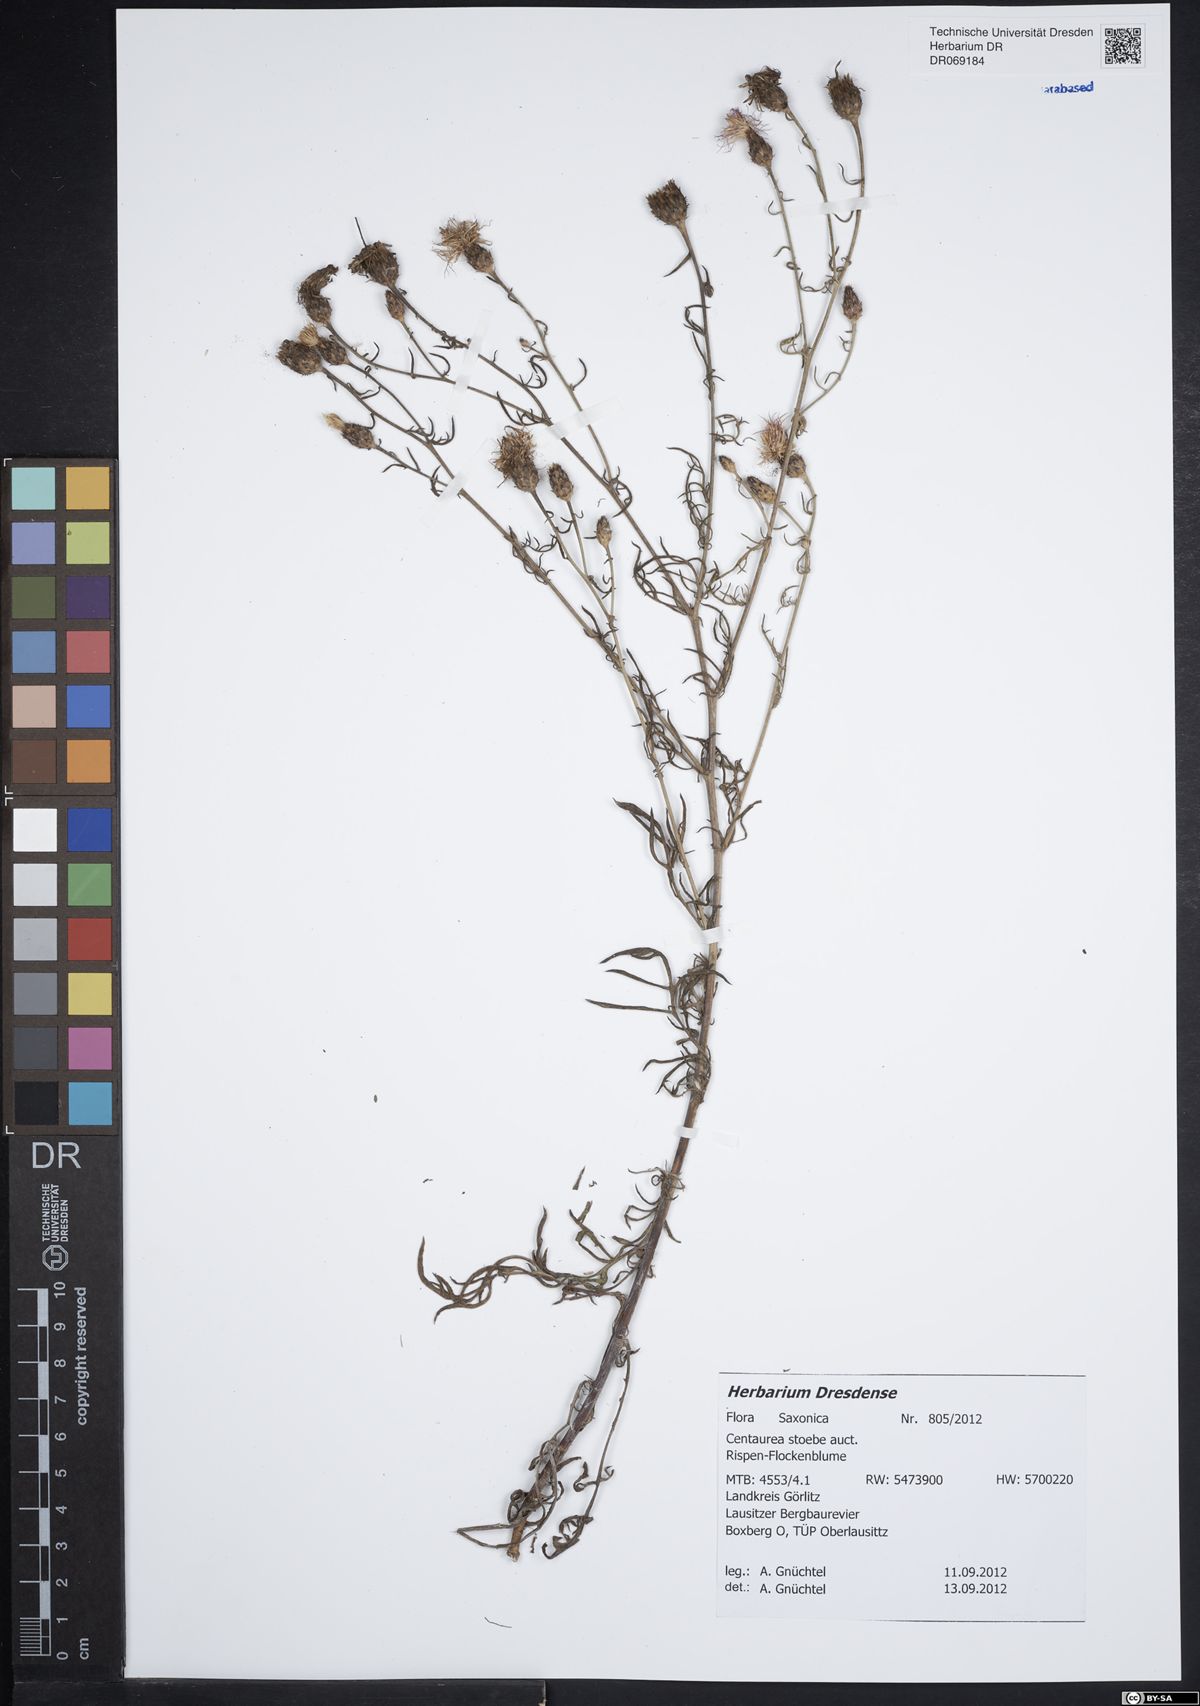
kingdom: Plantae
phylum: Tracheophyta
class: Magnoliopsida
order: Asterales
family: Asteraceae
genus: Centaurea
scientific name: Centaurea stoebe
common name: Spotted knapweed
